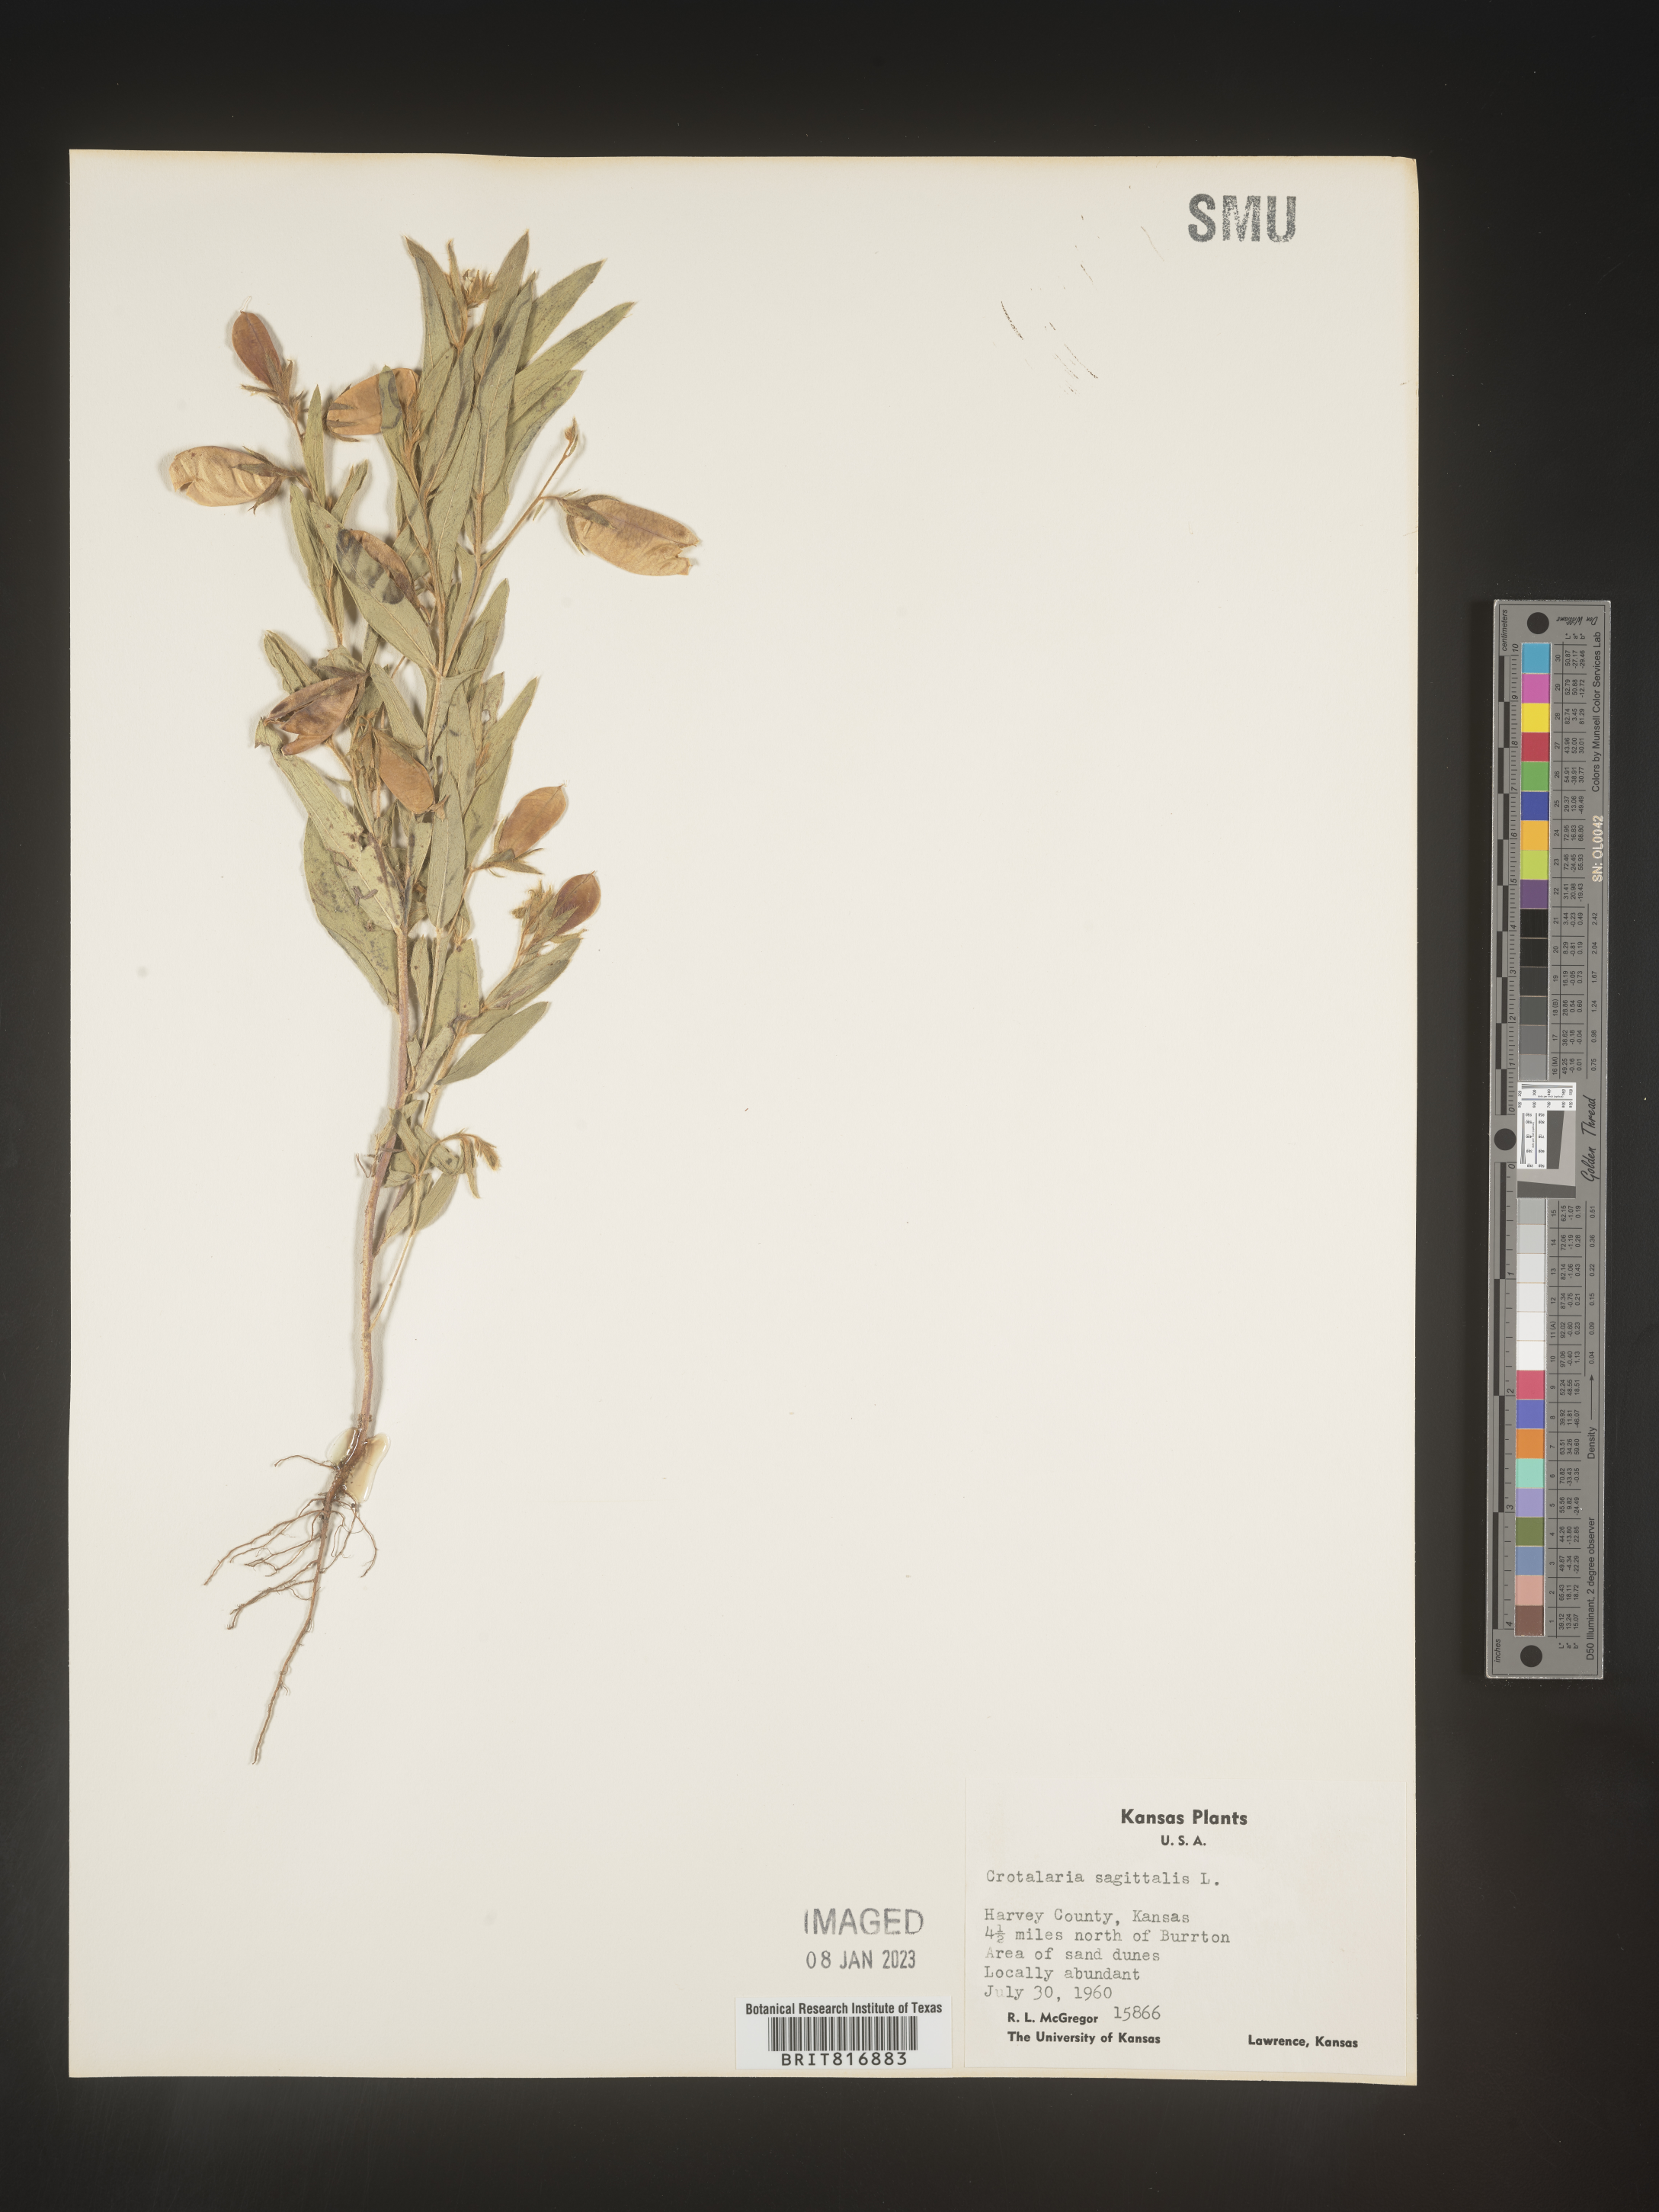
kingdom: Plantae
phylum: Tracheophyta
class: Magnoliopsida
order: Fabales
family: Fabaceae
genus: Crotalaria
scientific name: Crotalaria sagittalis
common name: Arrowhead rattlebox
